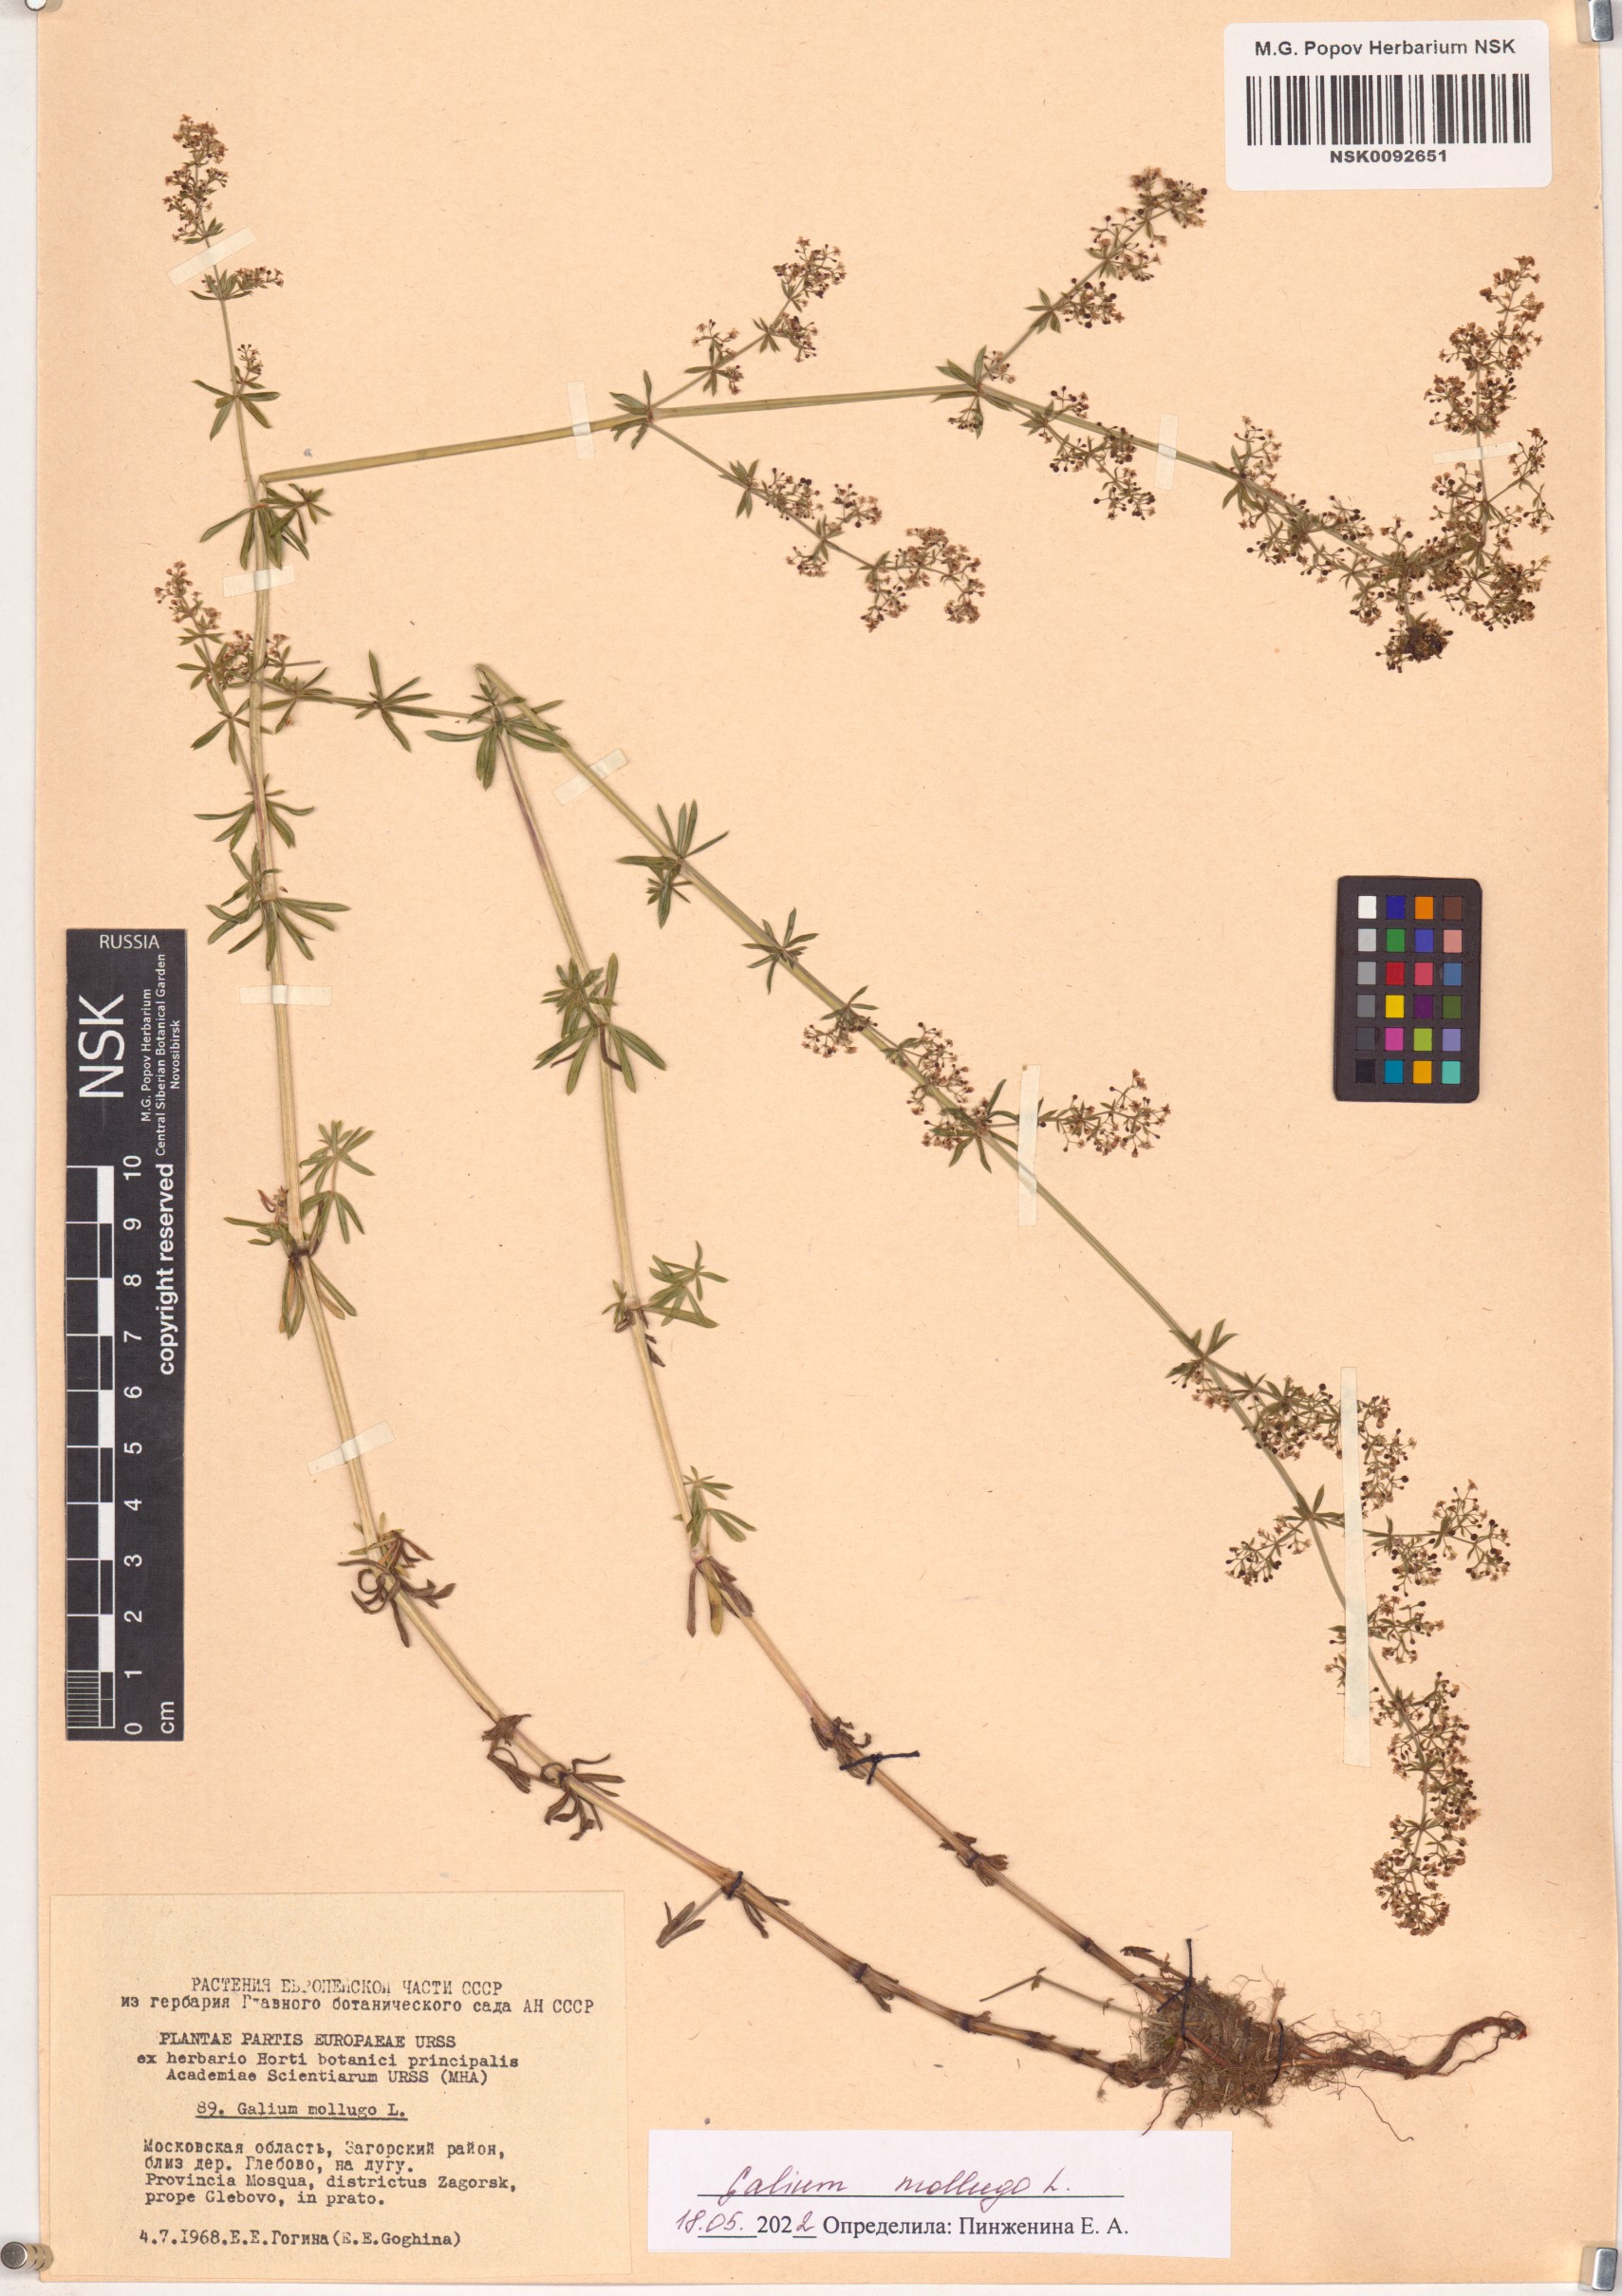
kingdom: Plantae
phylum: Tracheophyta
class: Magnoliopsida
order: Gentianales
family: Rubiaceae
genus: Galium
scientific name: Galium mollugo
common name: Hedge bedstraw
